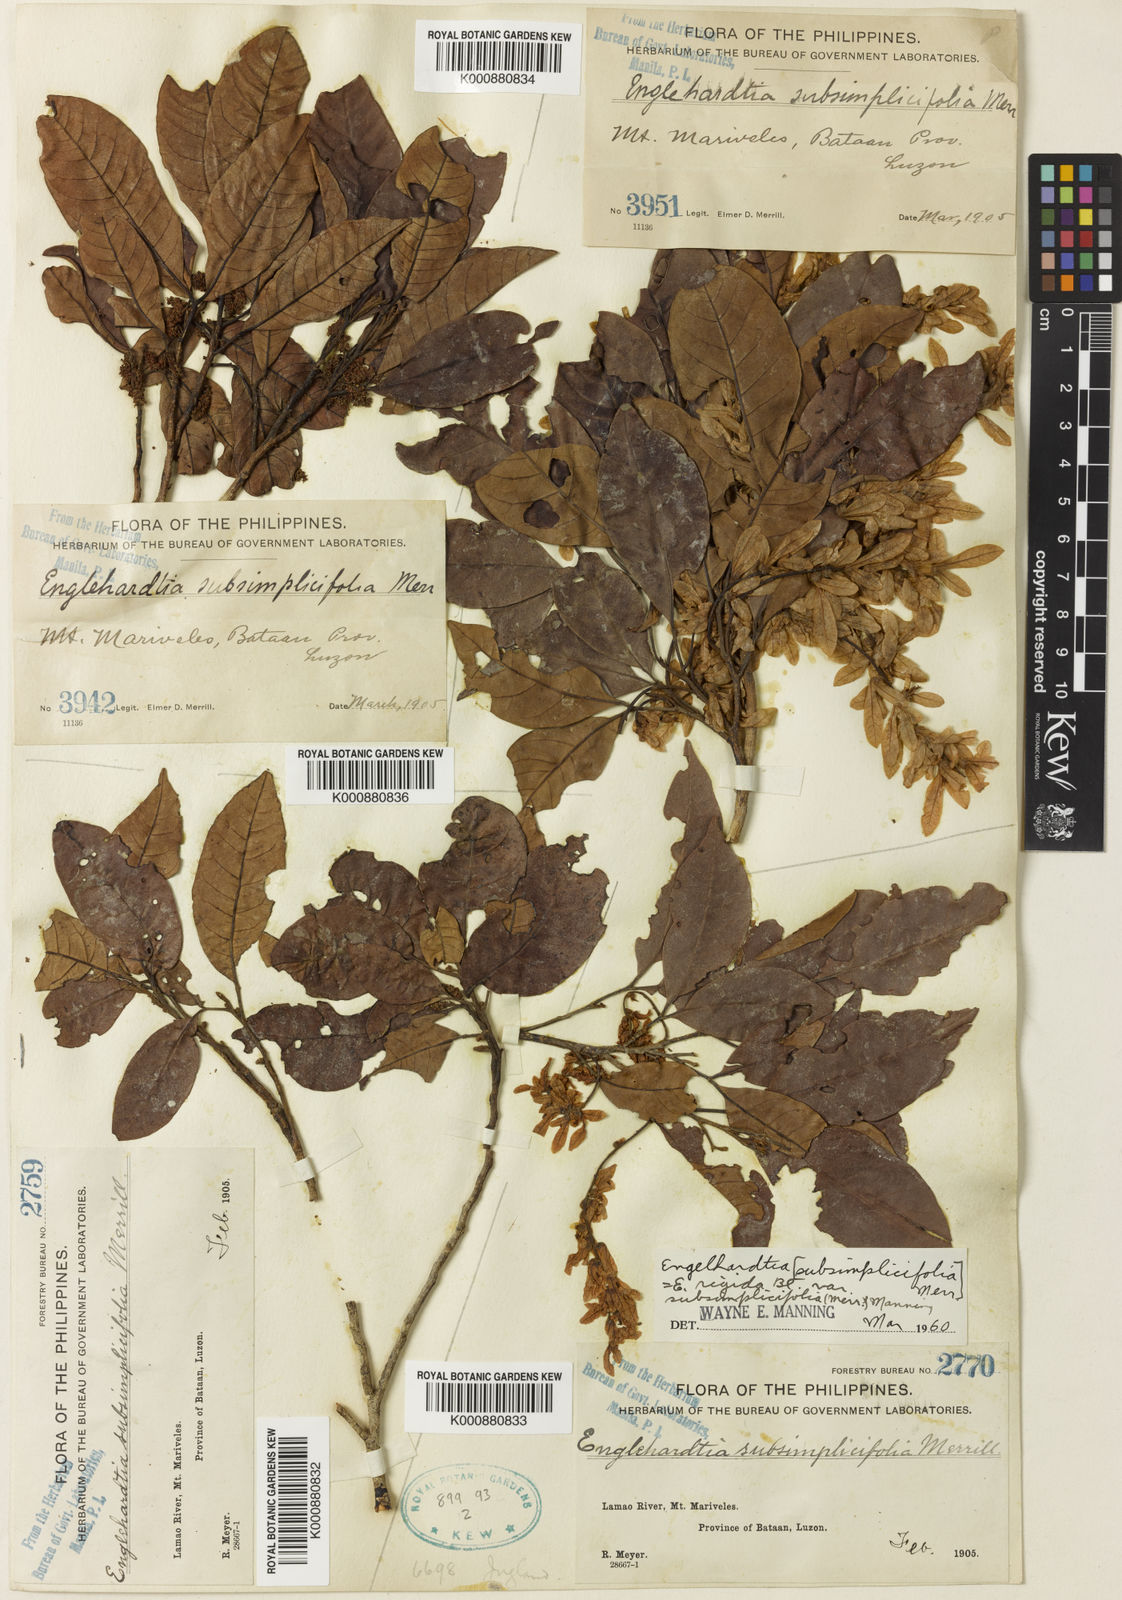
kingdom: Plantae
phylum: Tracheophyta
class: Magnoliopsida
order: Fagales
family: Juglandaceae
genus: Engelhardia
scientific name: Engelhardia rigida
